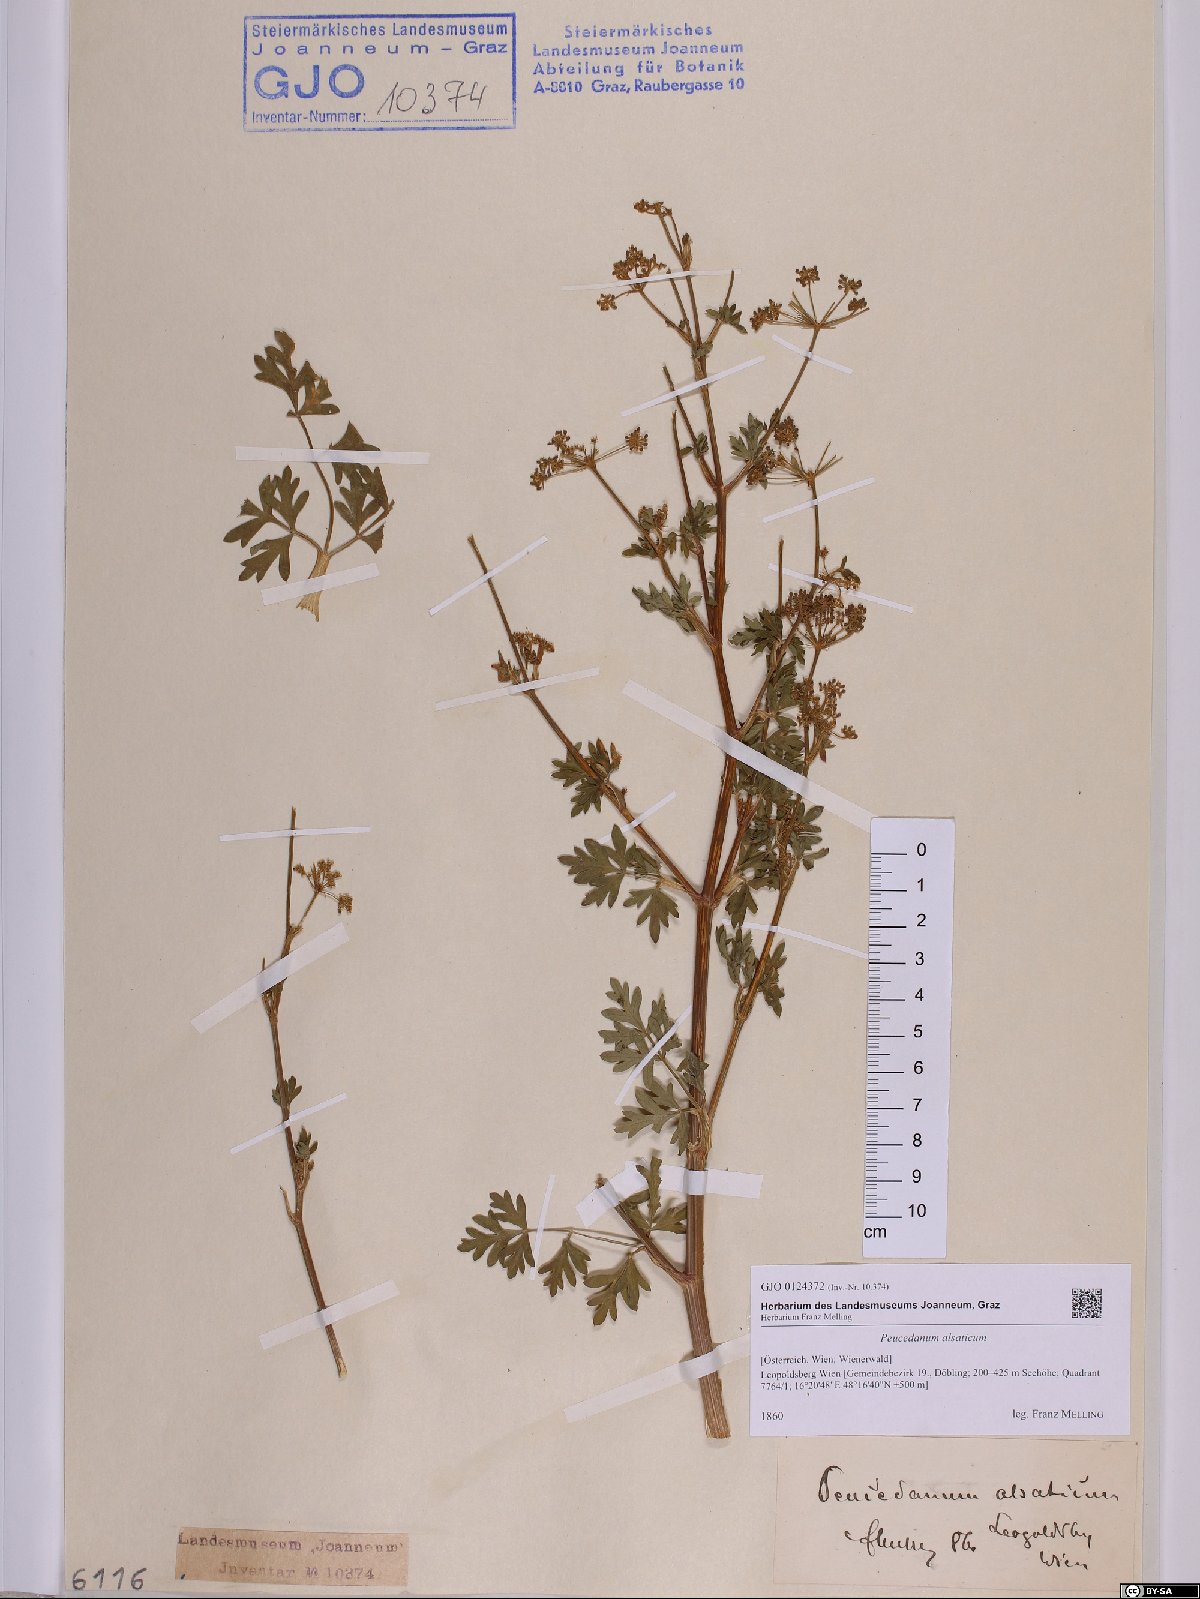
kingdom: Plantae
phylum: Tracheophyta
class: Magnoliopsida
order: Apiales
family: Apiaceae
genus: Xanthoselinum
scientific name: Xanthoselinum alsaticum
